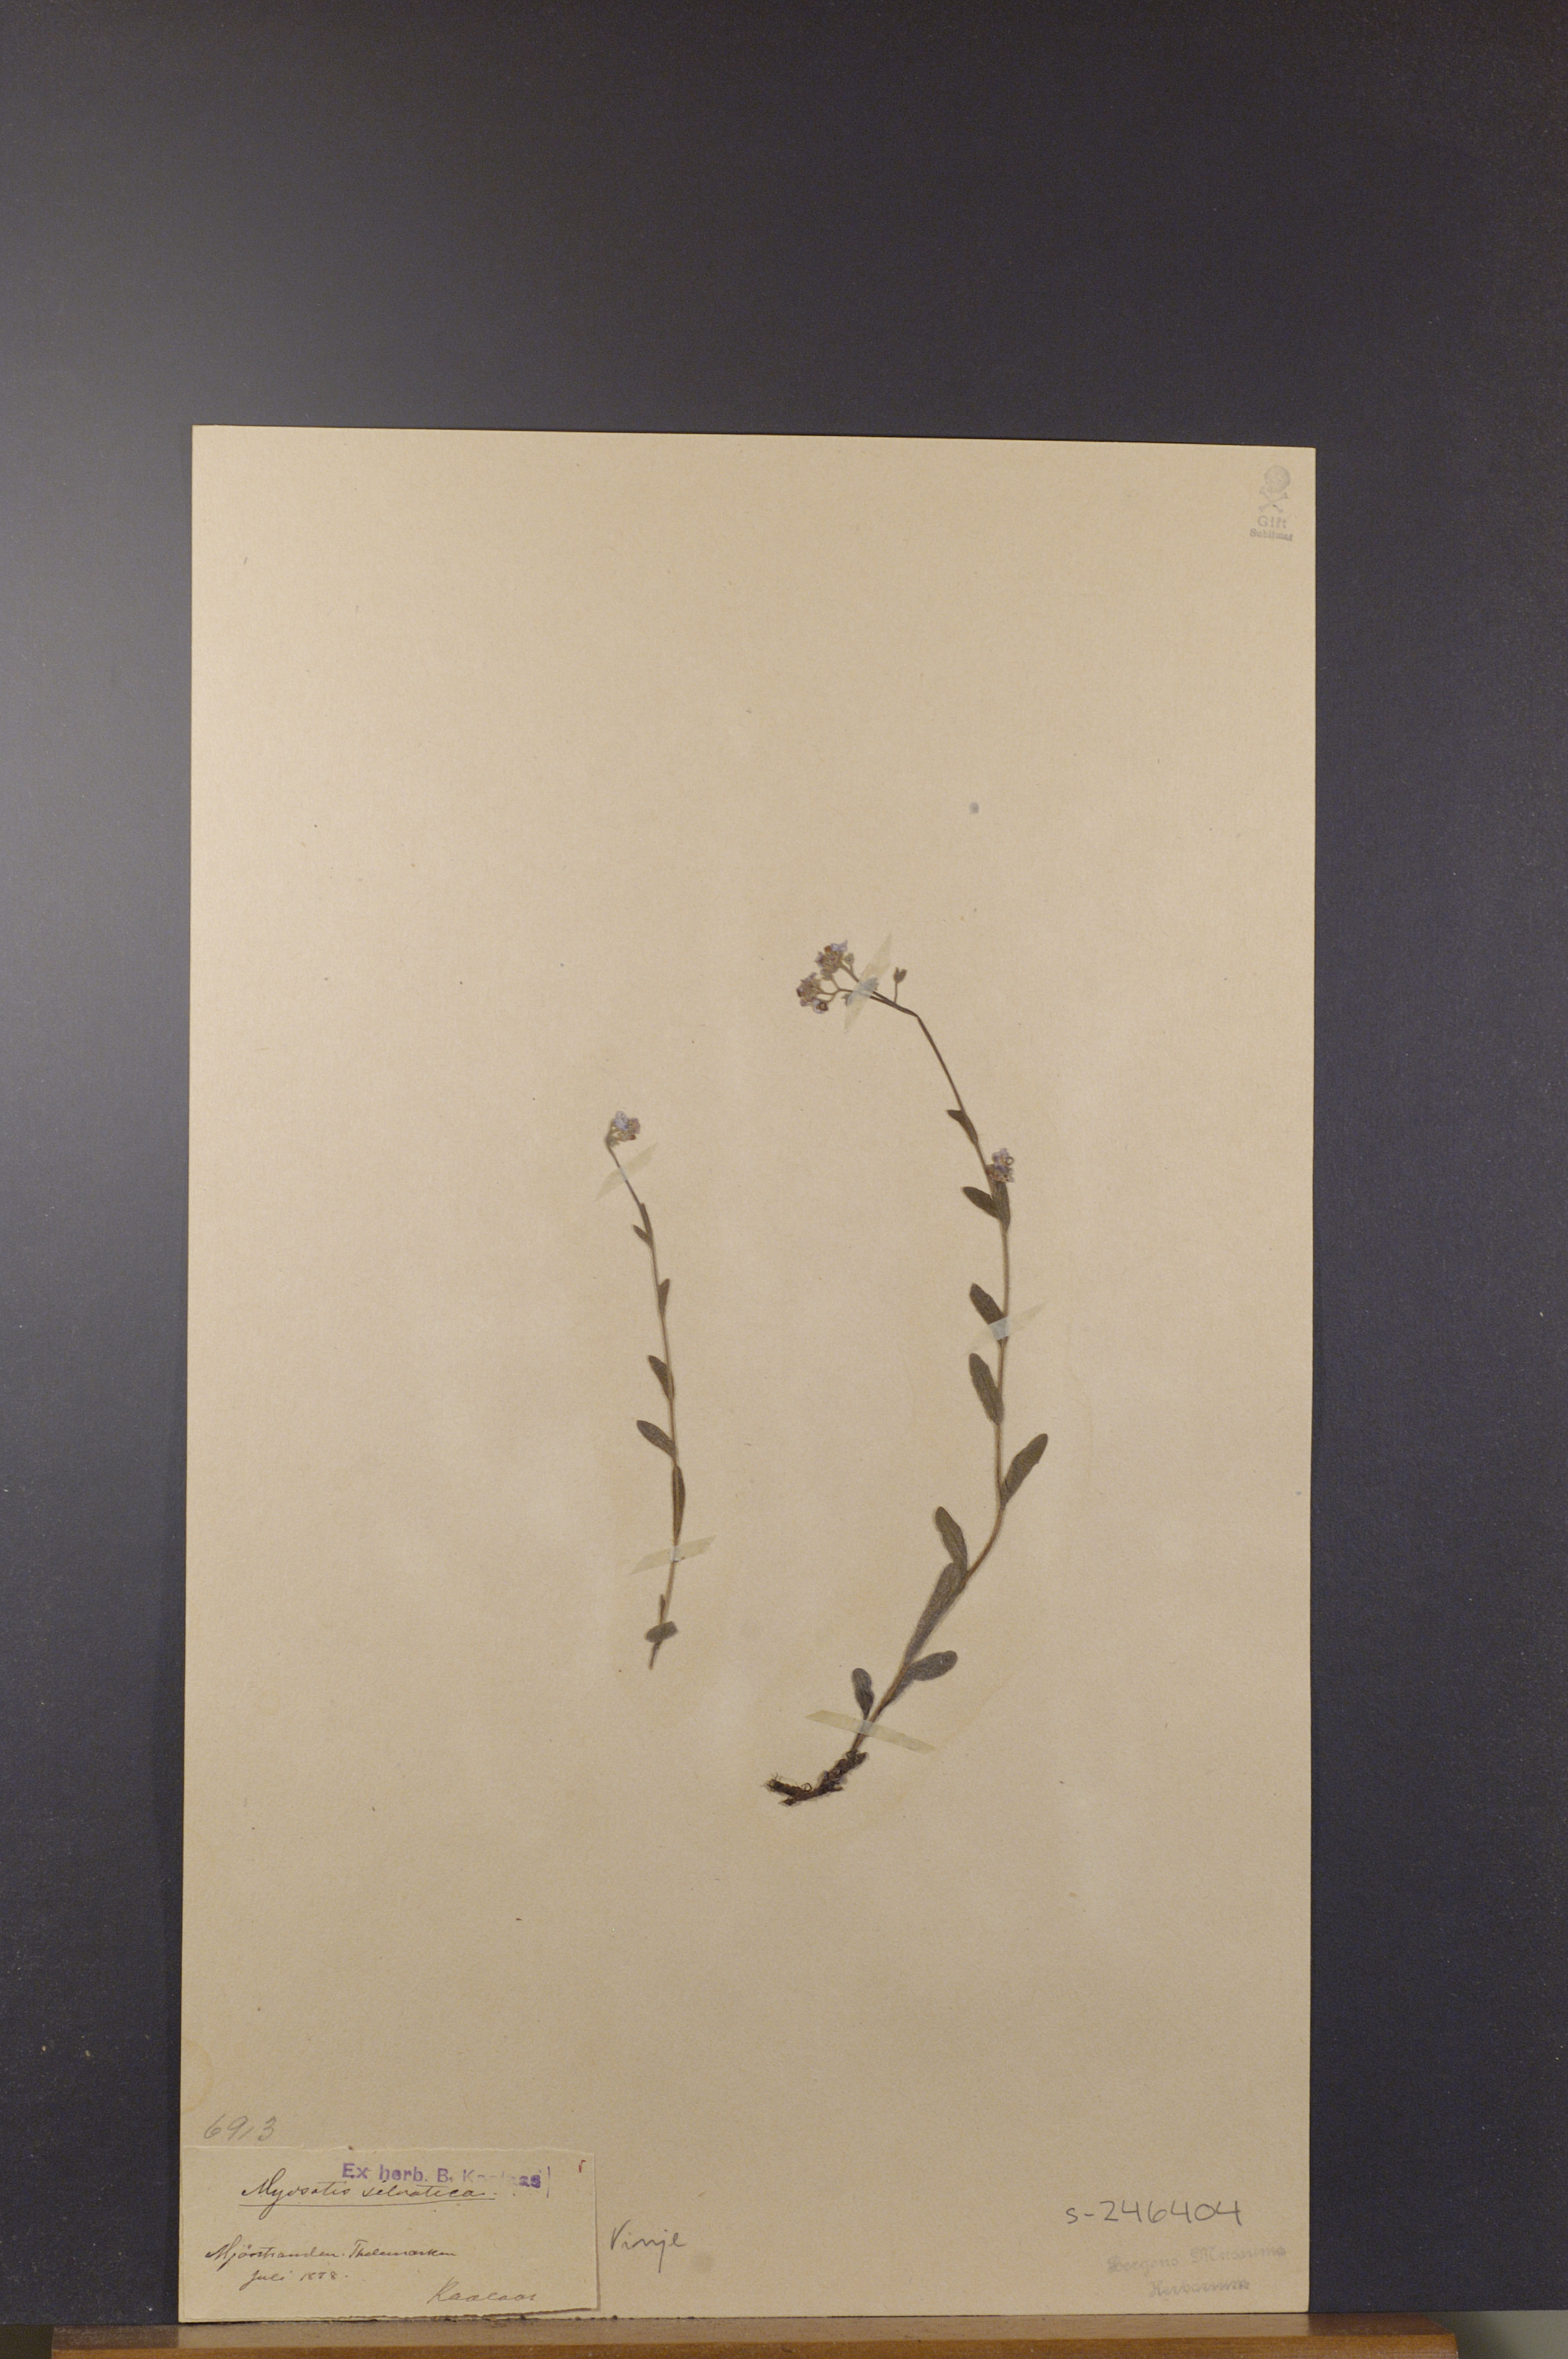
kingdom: Plantae
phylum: Tracheophyta
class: Magnoliopsida
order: Boraginales
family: Boraginaceae
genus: Myosotis
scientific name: Myosotis decumbens
